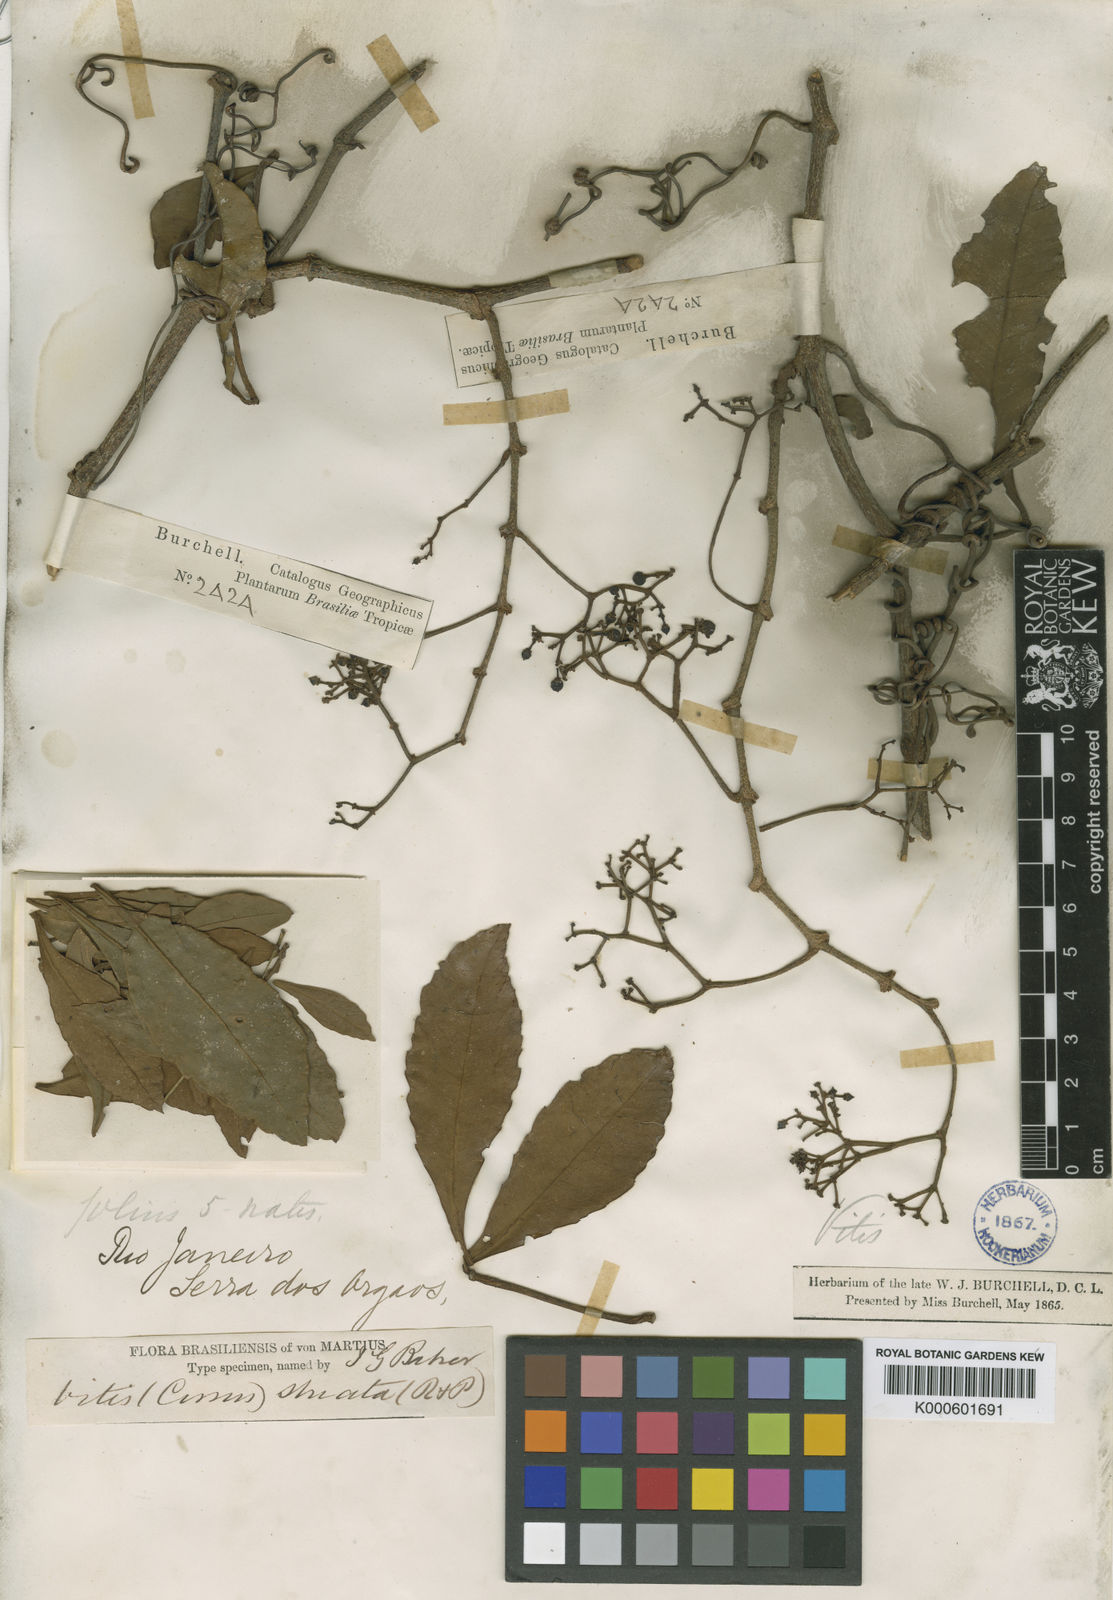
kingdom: Plantae
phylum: Tracheophyta
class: Magnoliopsida
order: Vitales
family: Vitaceae
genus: Clematicissus
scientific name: Clematicissus striata
